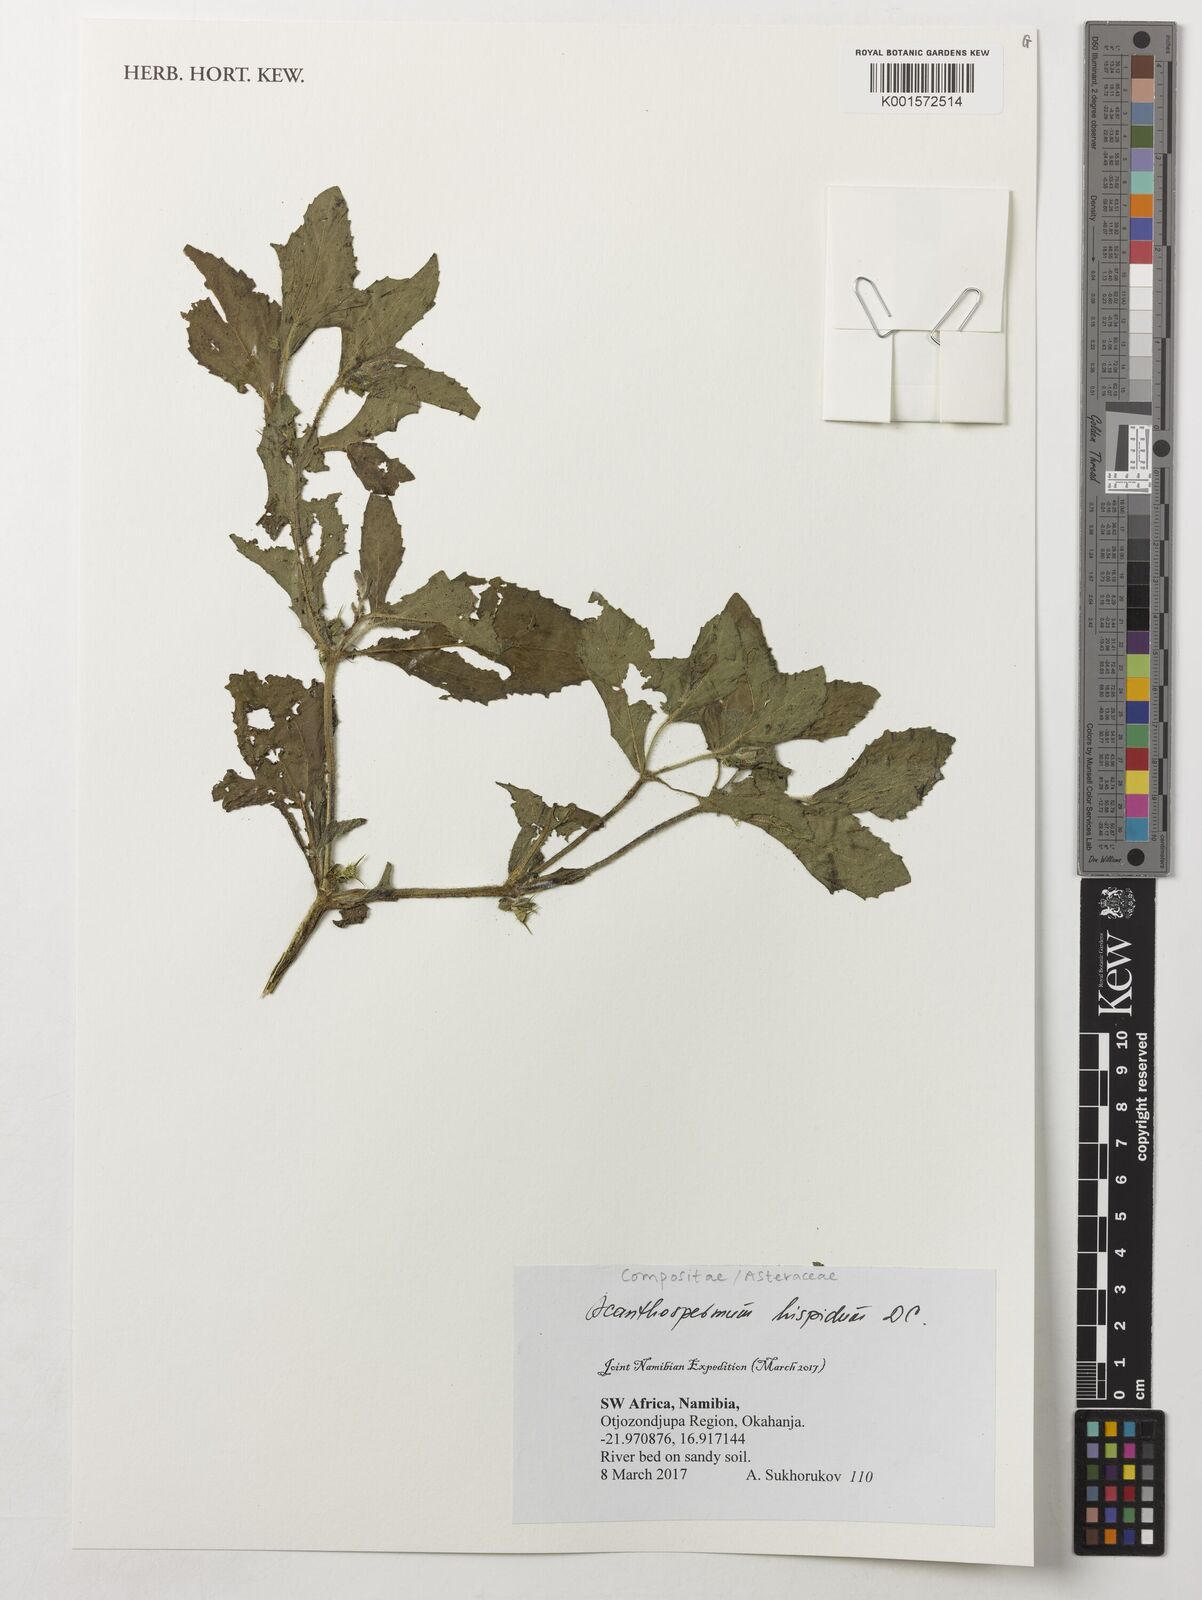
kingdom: Plantae
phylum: Tracheophyta
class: Magnoliopsida
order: Asterales
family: Asteraceae
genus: Acanthospermum
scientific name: Acanthospermum hispidum
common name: Hispid starbur
